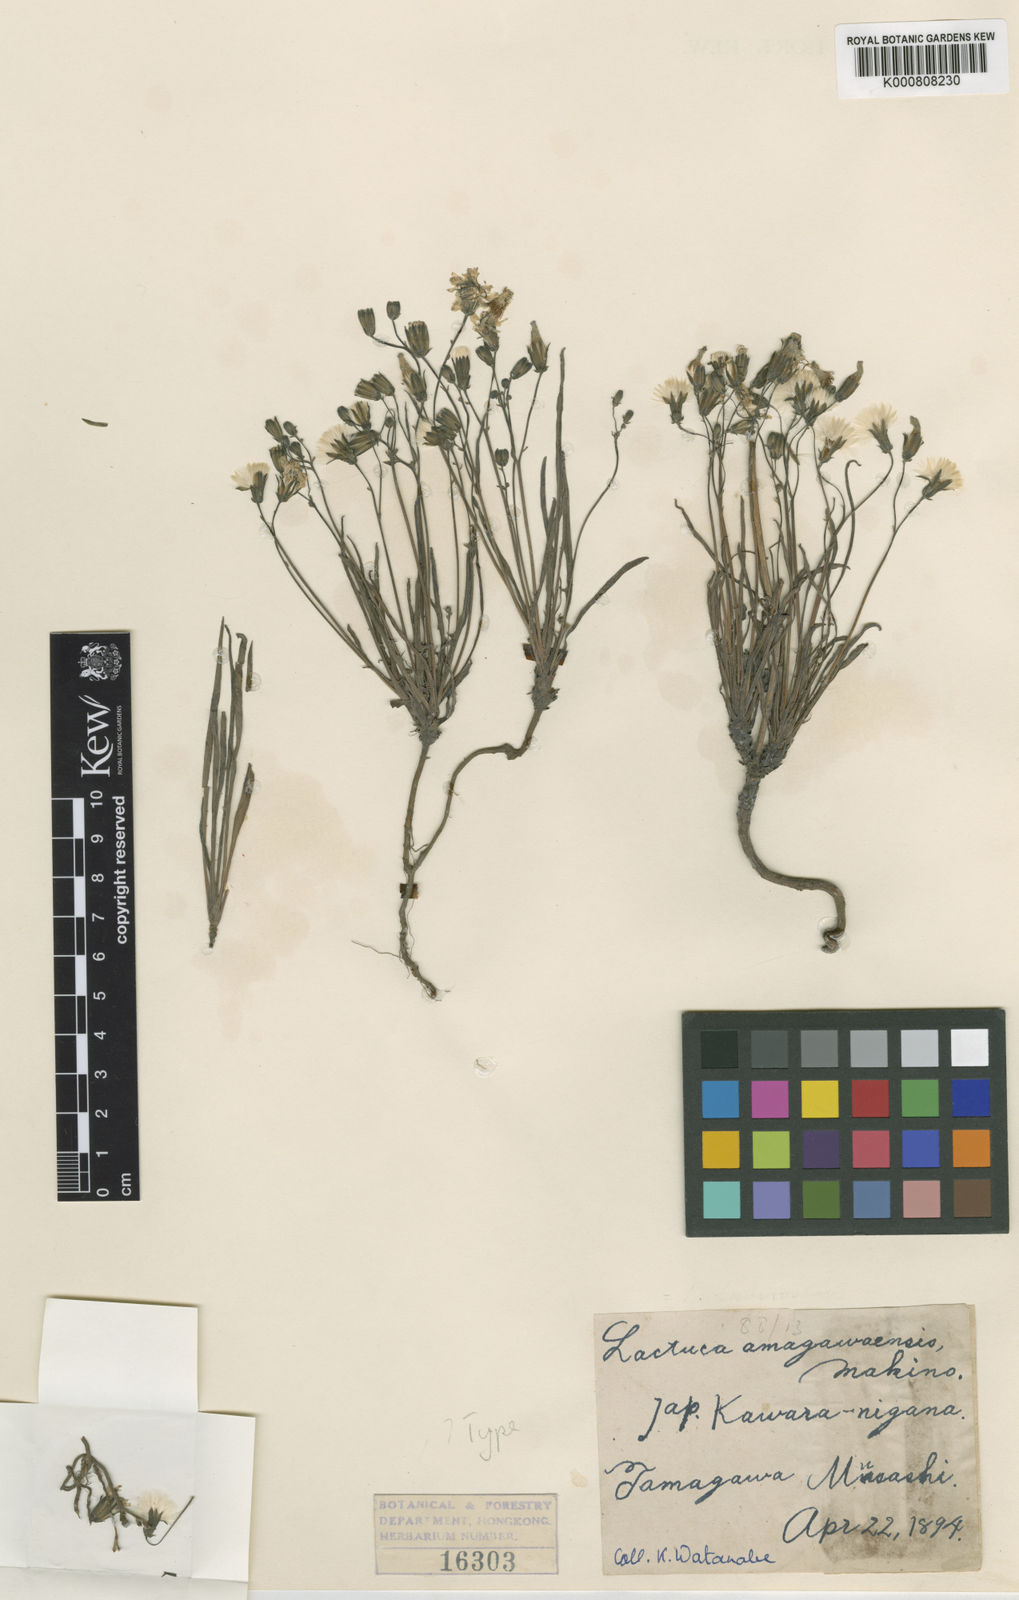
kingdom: Plantae
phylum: Tracheophyta
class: Magnoliopsida
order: Asterales
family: Asteraceae
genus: Ixeris
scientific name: Ixeris tamagawaensis
